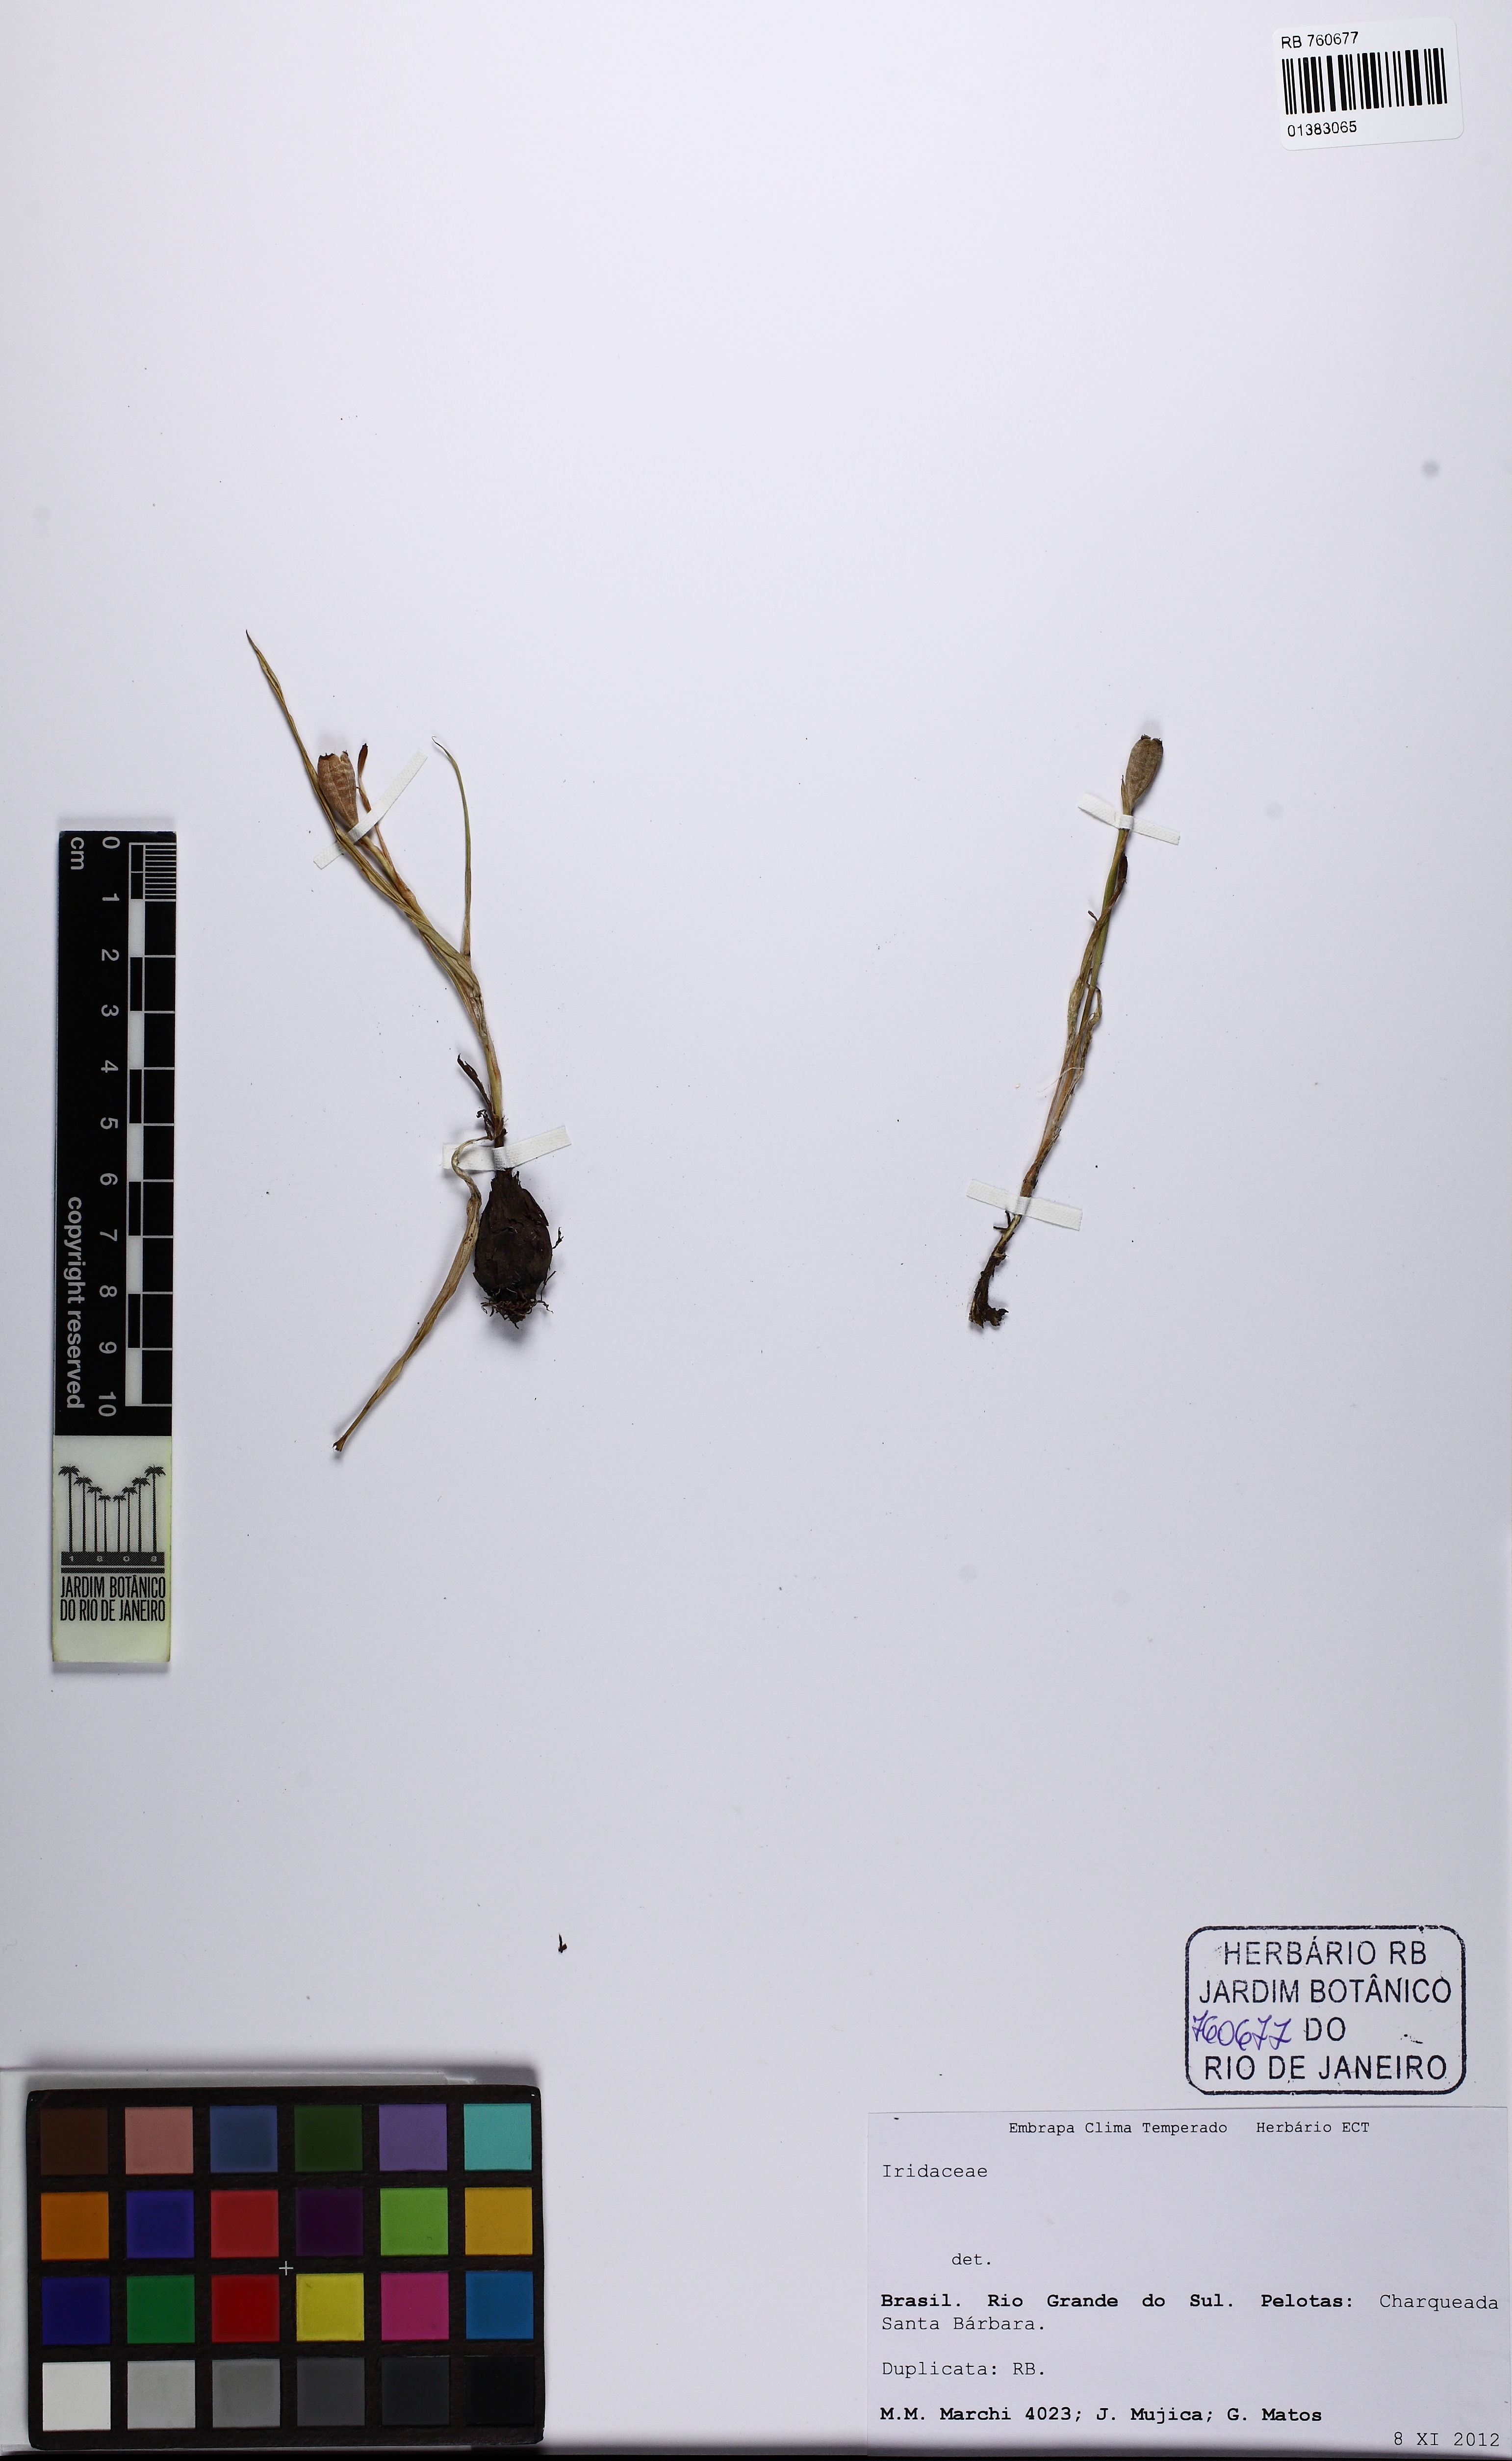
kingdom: Plantae
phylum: Tracheophyta
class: Liliopsida
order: Asparagales
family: Iridaceae
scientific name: Iridaceae
